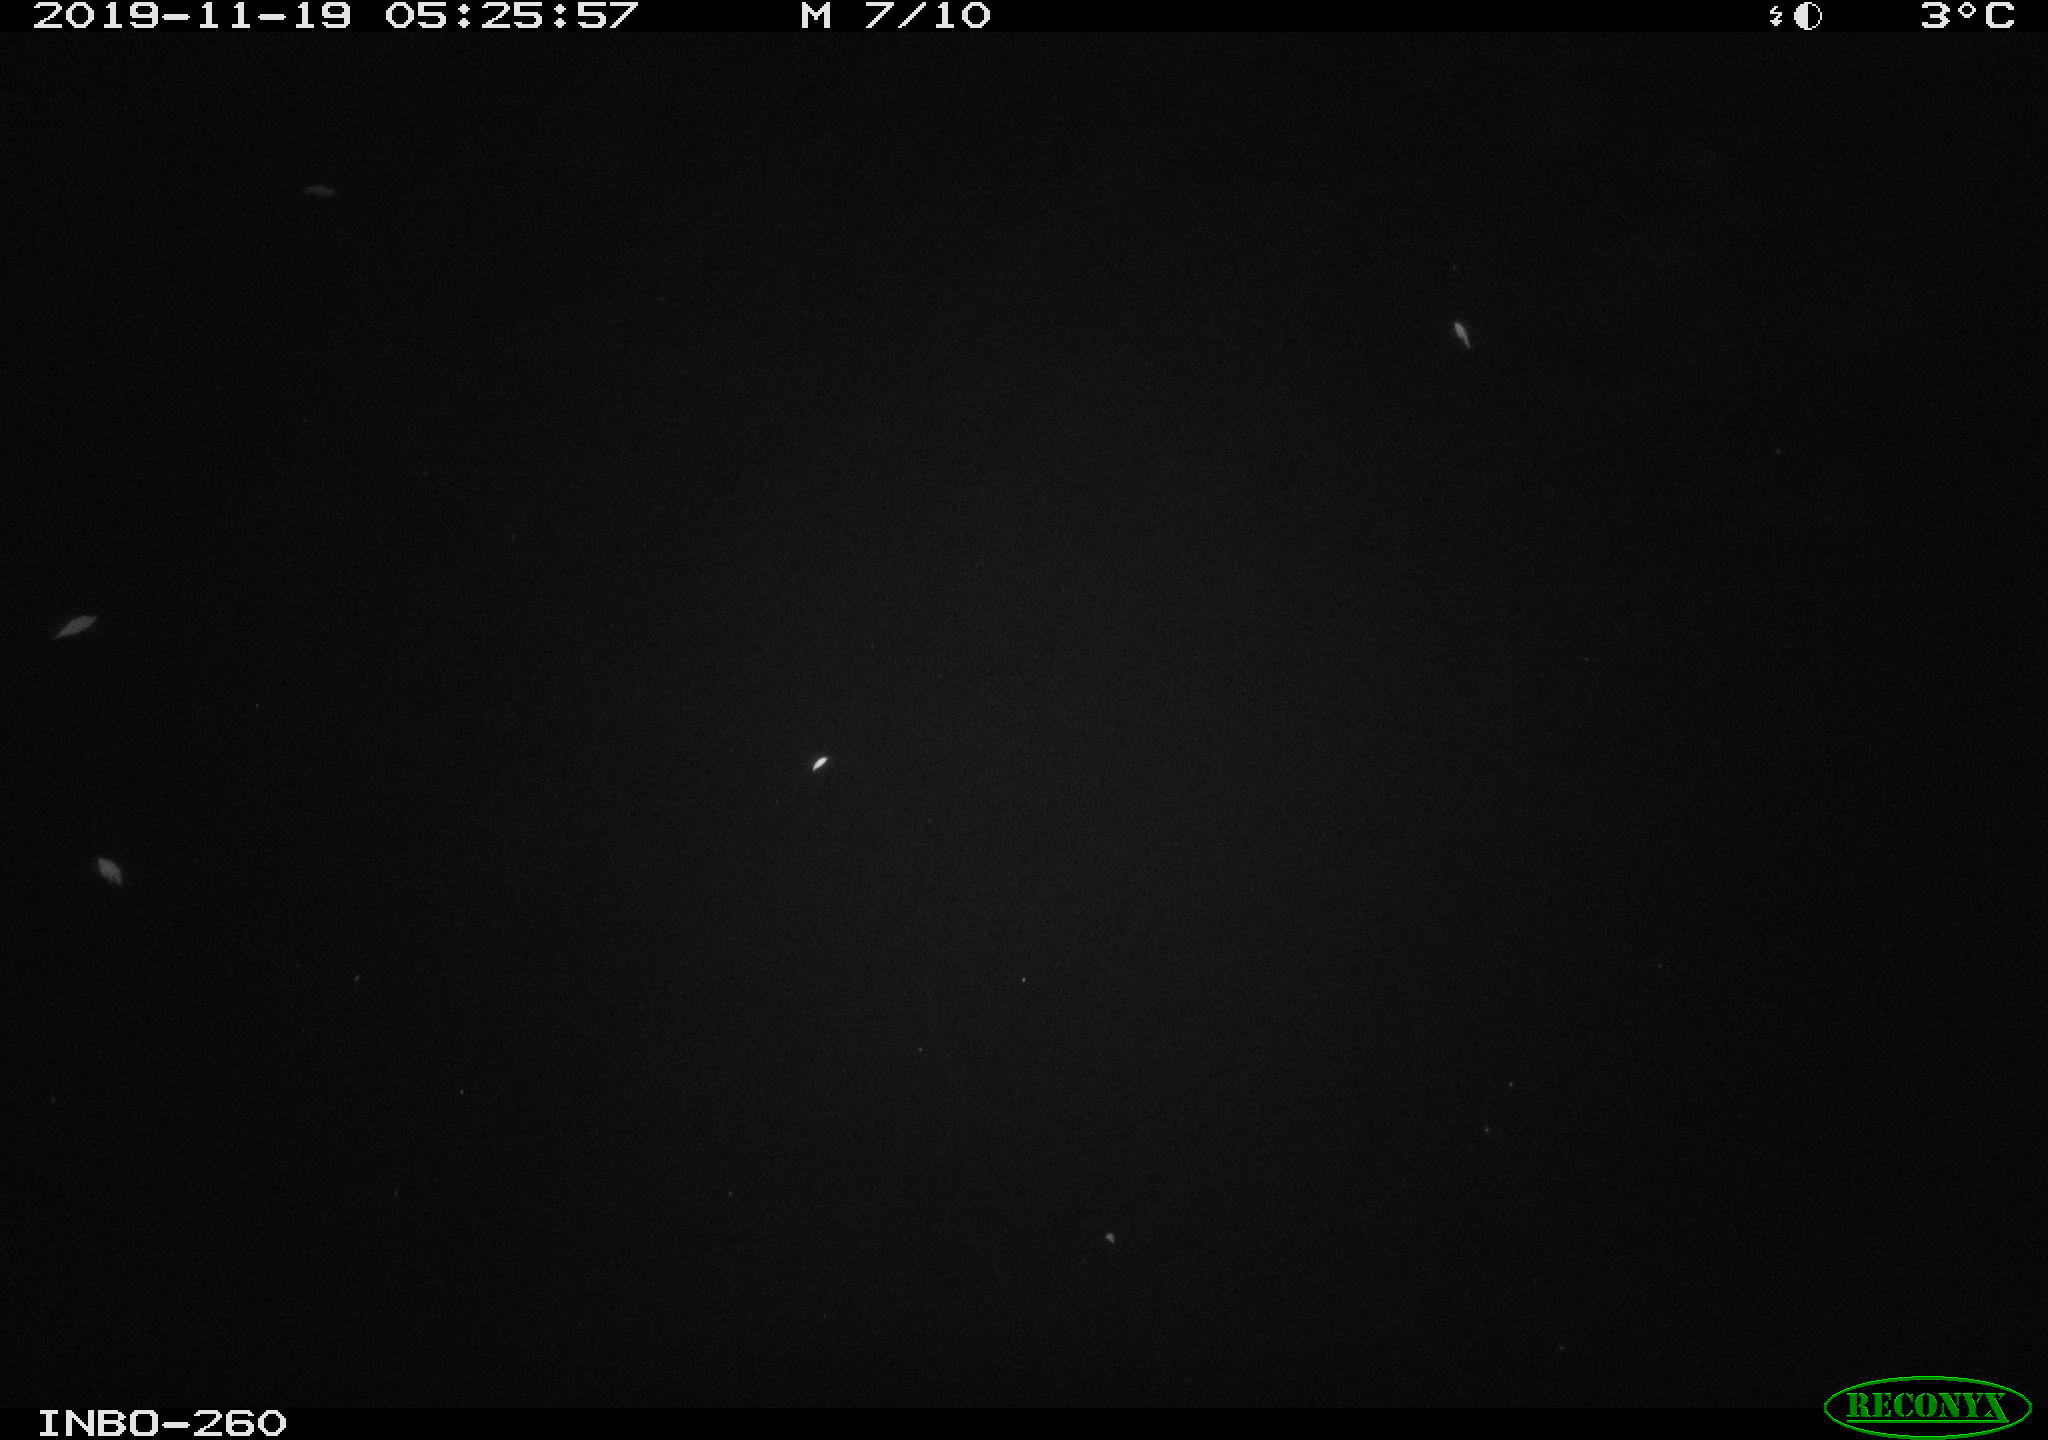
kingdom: Animalia
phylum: Chordata
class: Aves
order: Anseriformes
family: Anatidae
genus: Anas
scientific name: Anas platyrhynchos
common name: Mallard
